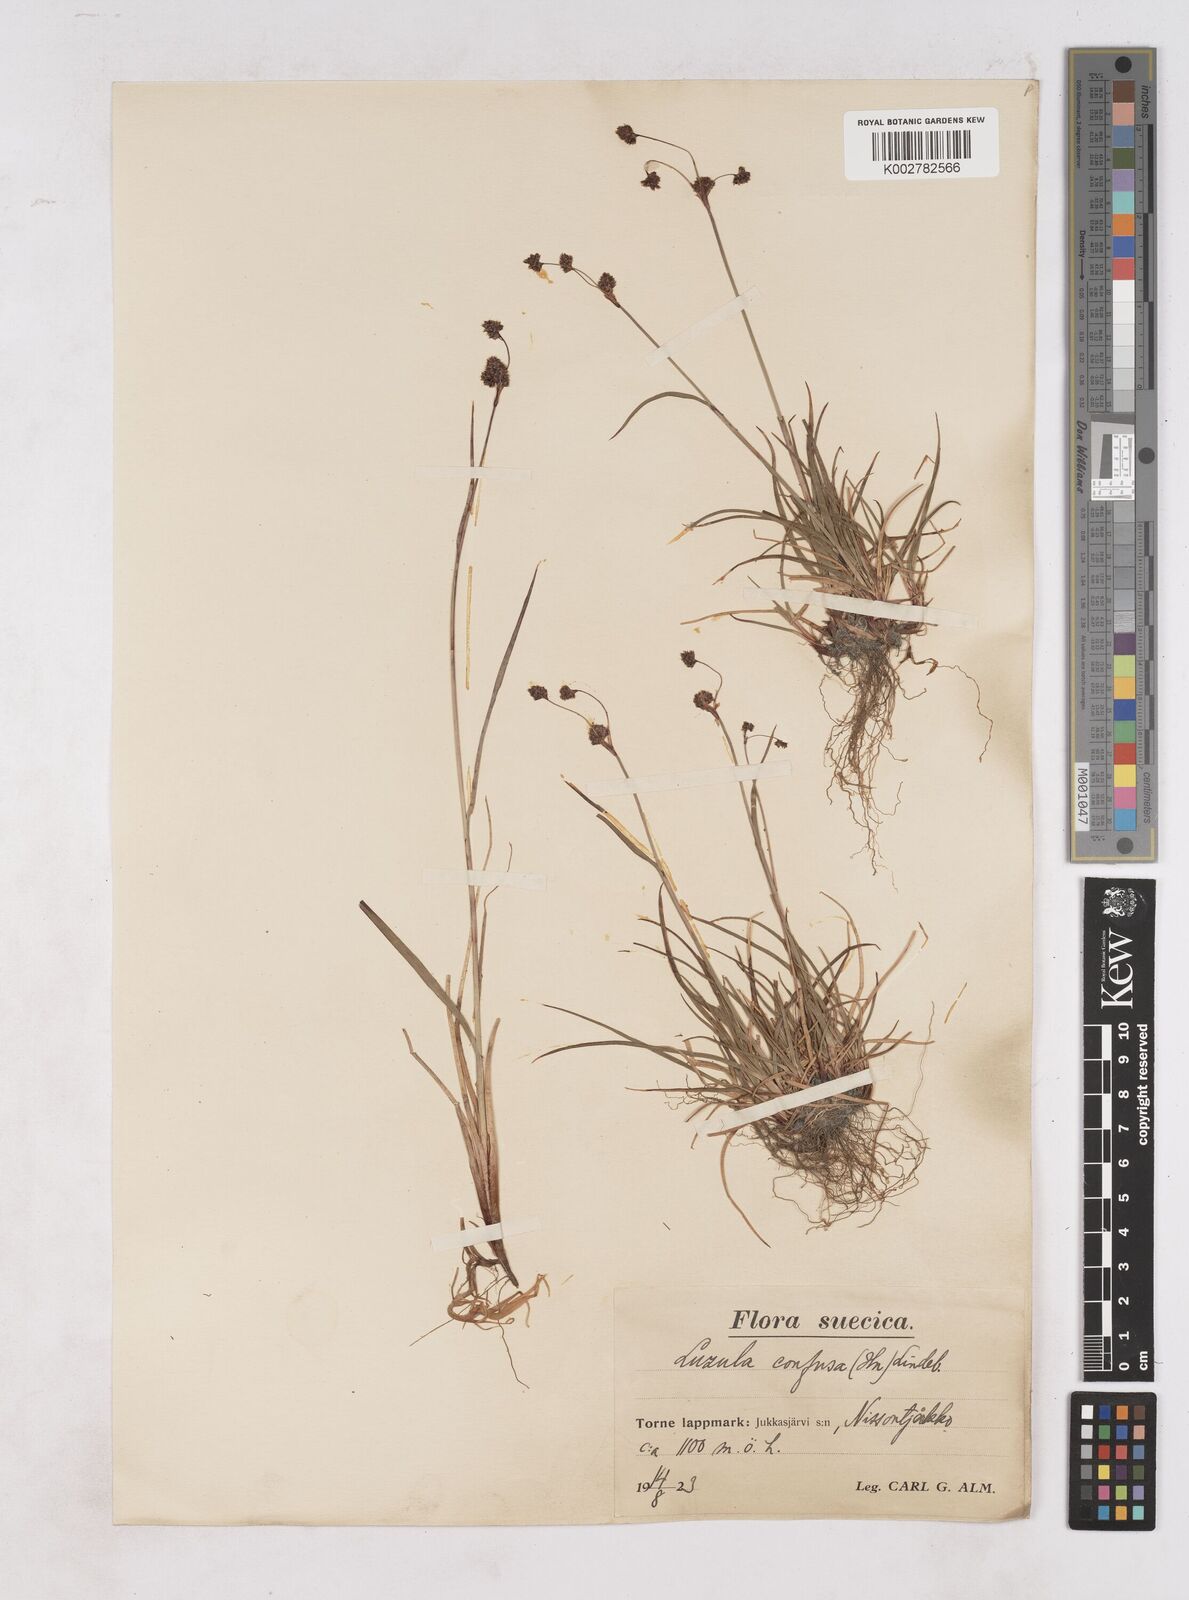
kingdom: Plantae
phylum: Tracheophyta
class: Liliopsida
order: Poales
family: Juncaceae
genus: Luzula
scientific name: Luzula confusa
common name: Northern wood rush
